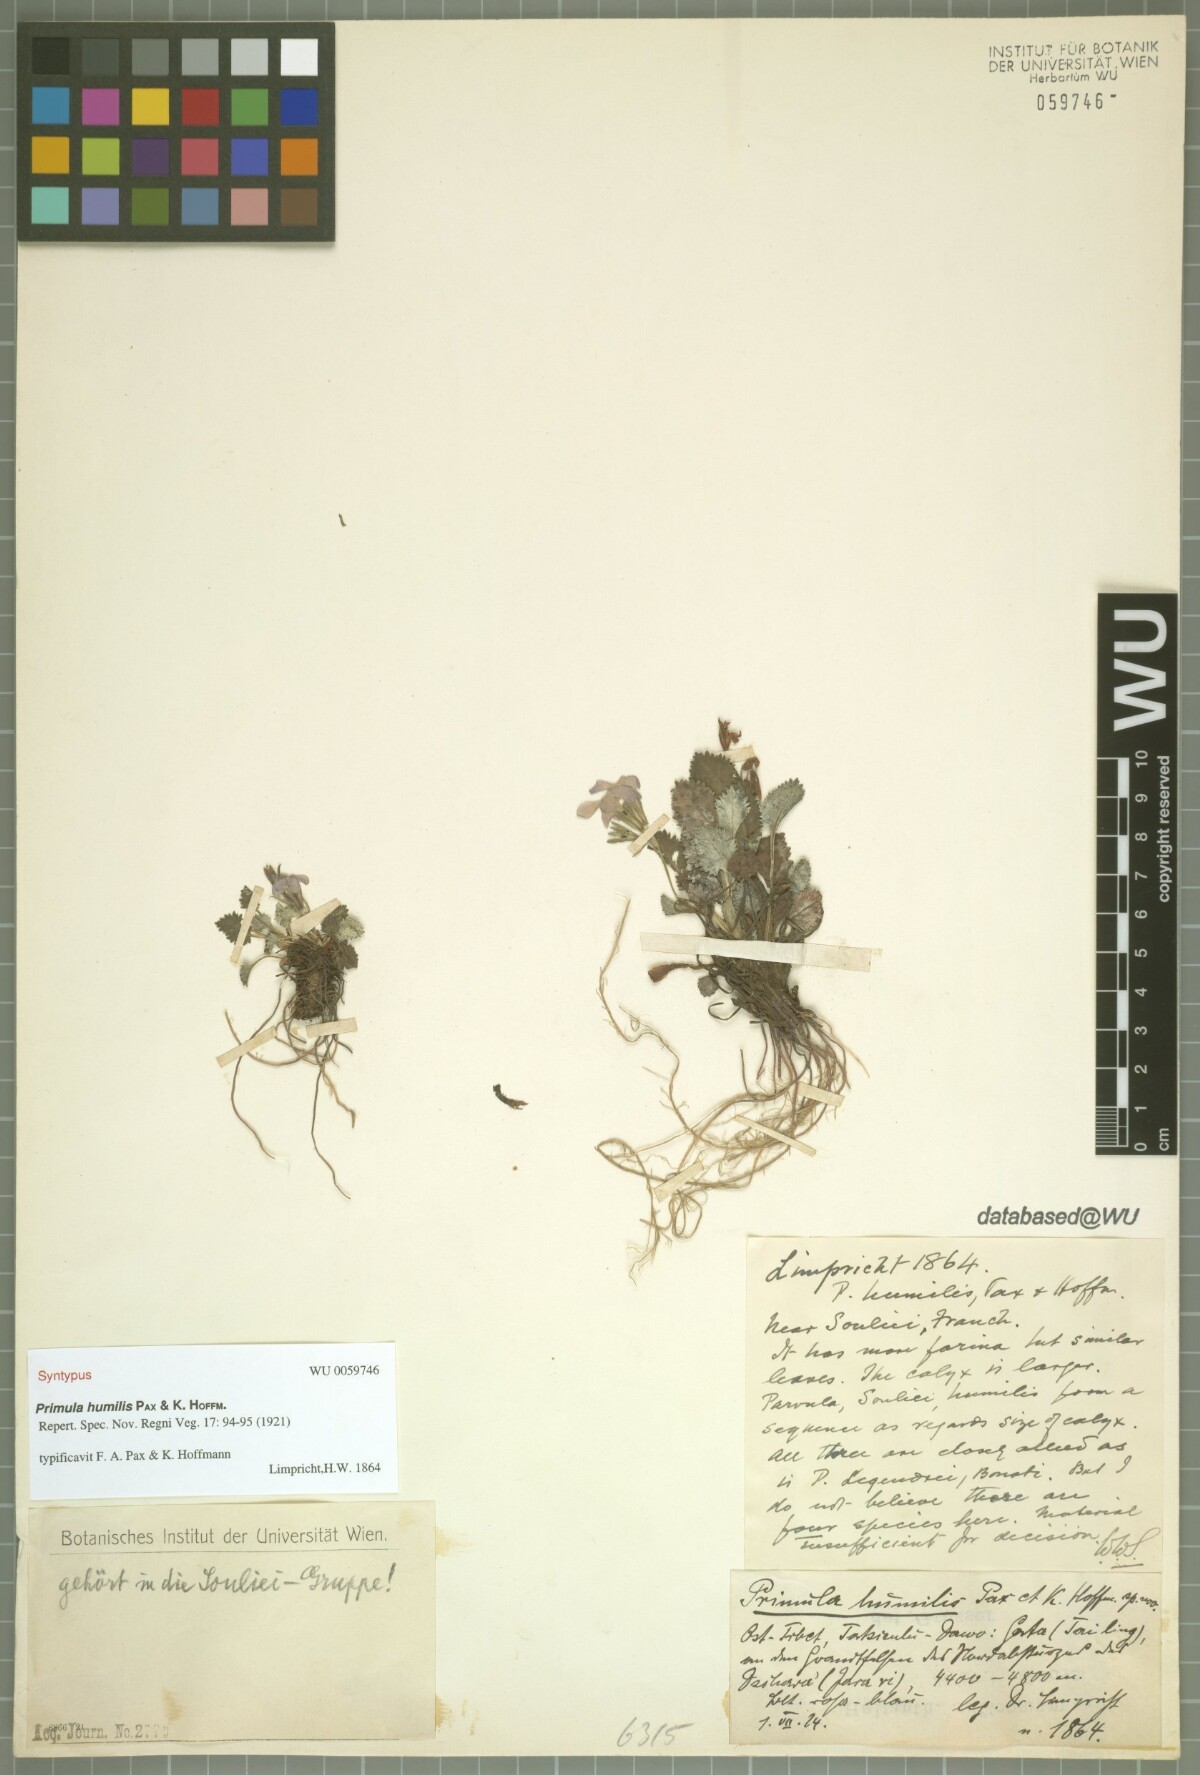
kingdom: Plantae
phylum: Tracheophyta
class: Magnoliopsida
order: Ericales
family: Primulaceae
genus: Primula
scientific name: Primula sinohumilis
